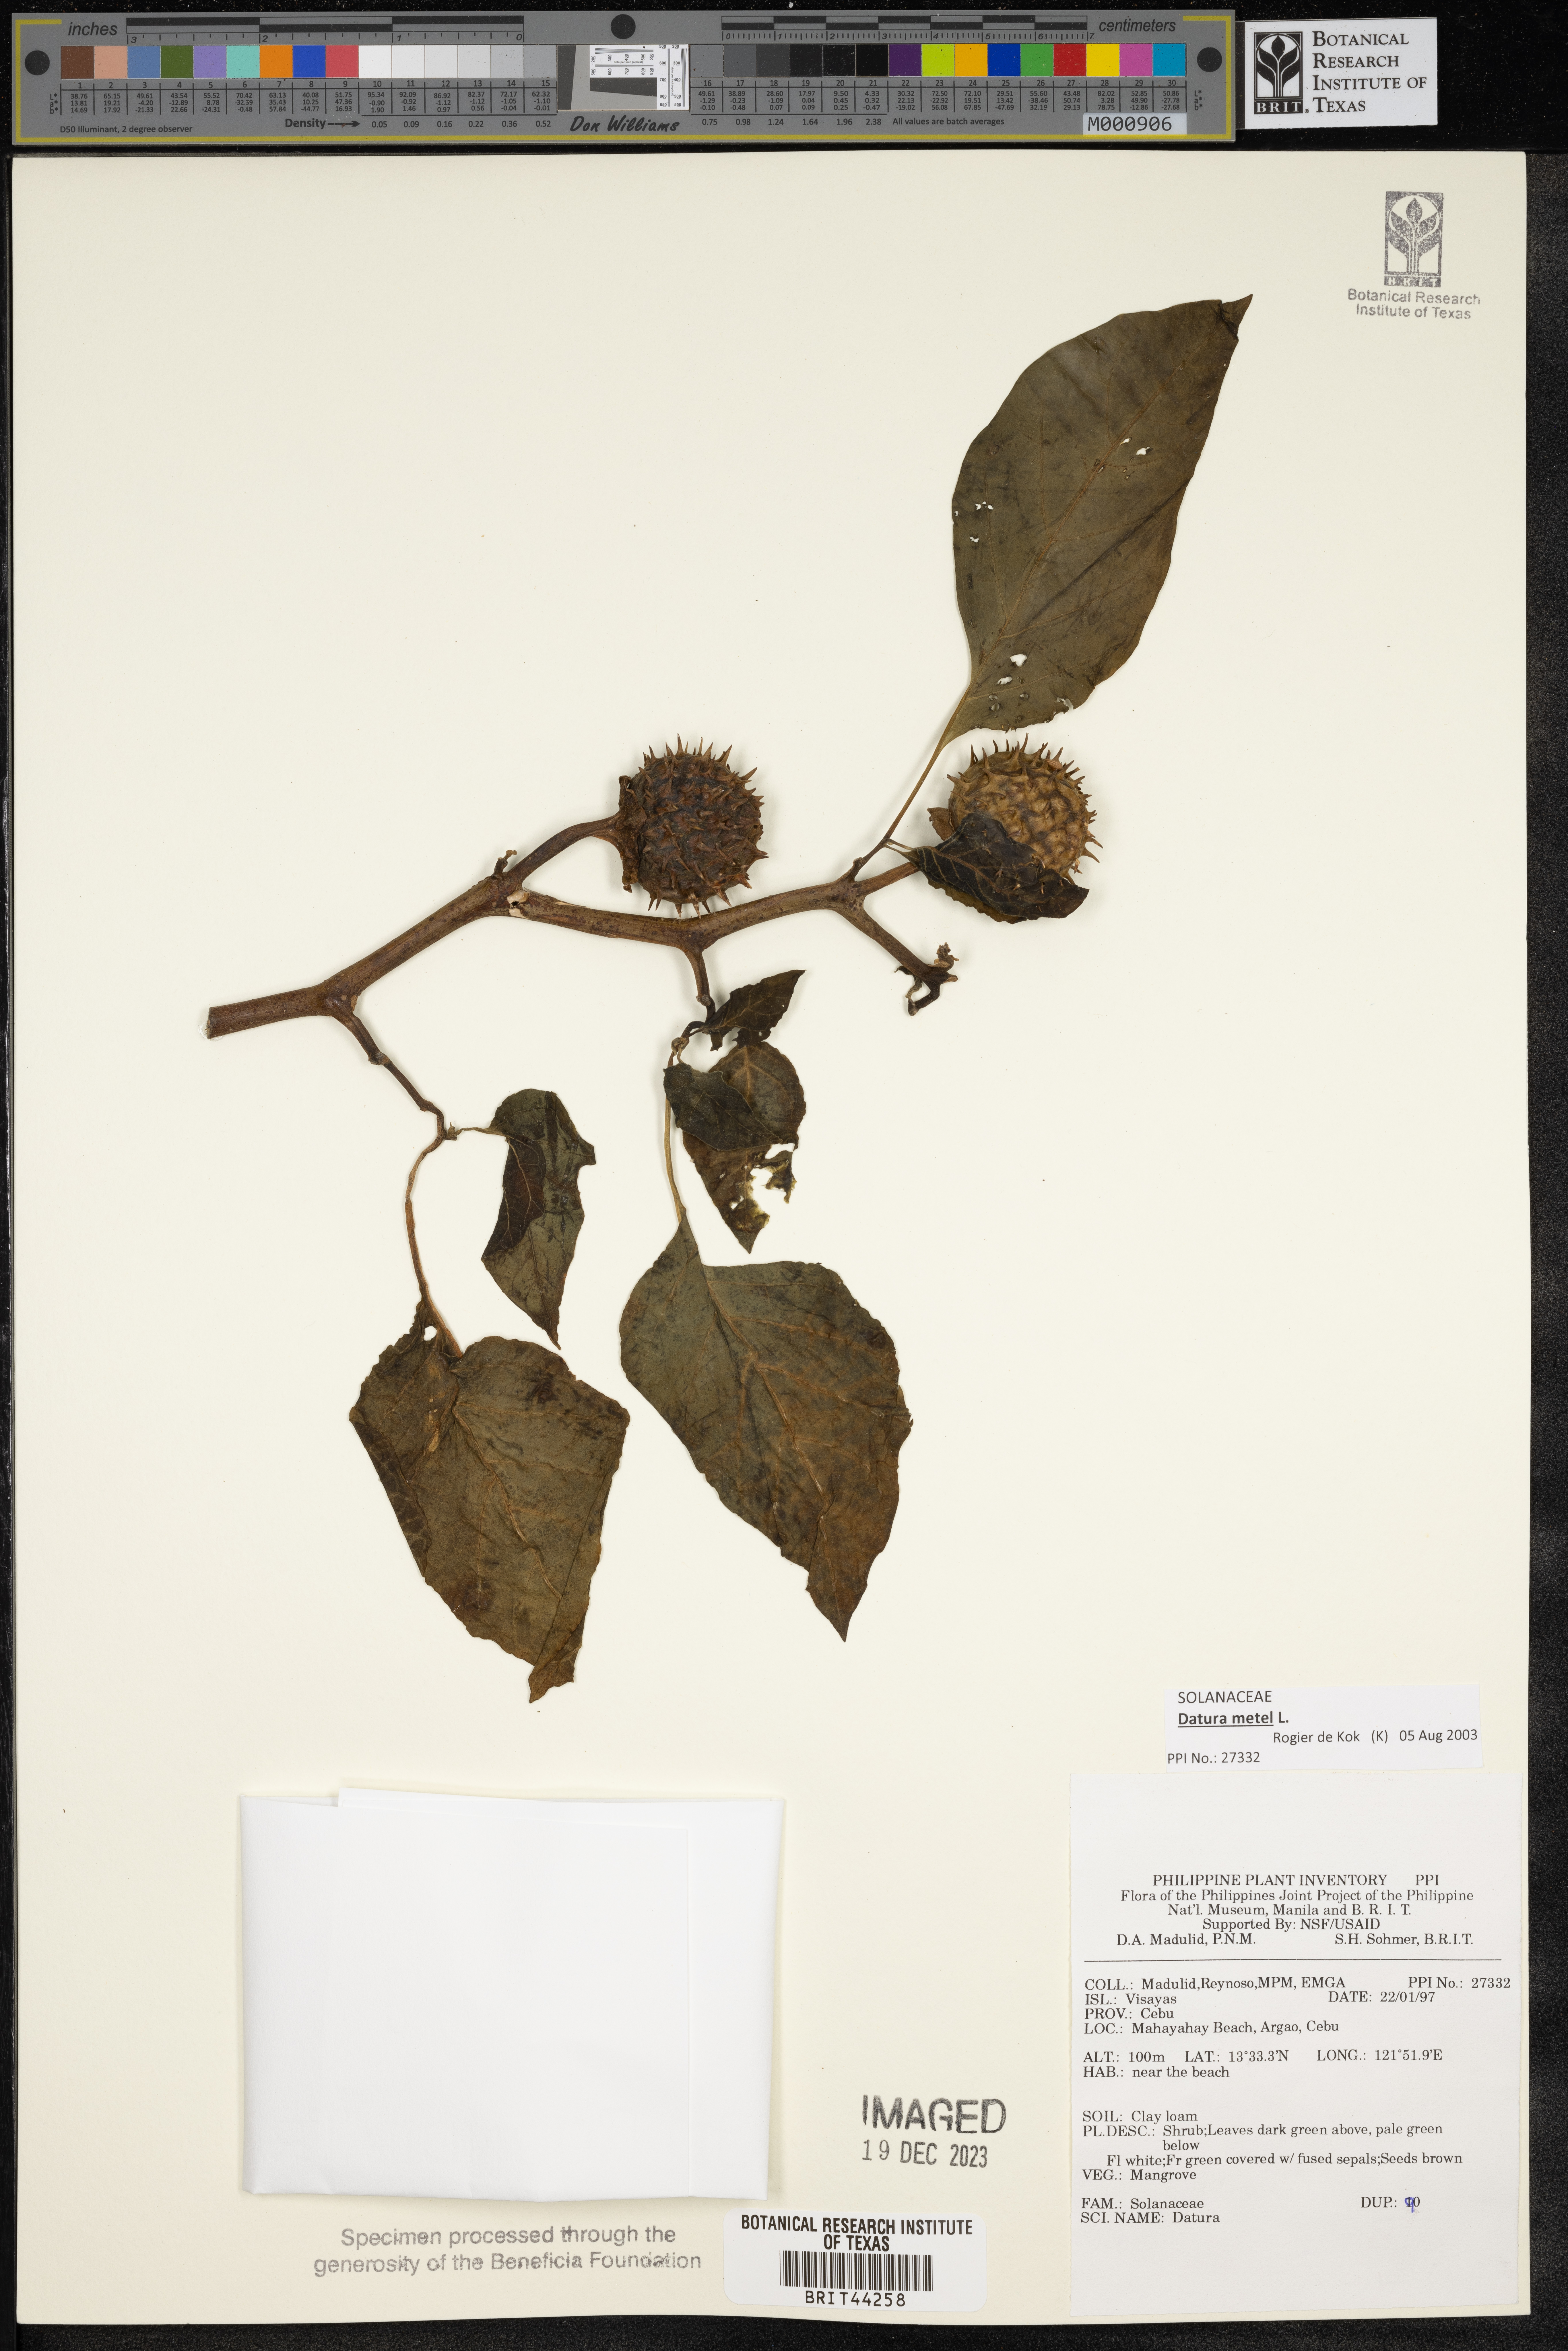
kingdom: Plantae
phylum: Tracheophyta
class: Magnoliopsida
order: Solanales
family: Solanaceae
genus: Datura
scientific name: Datura
